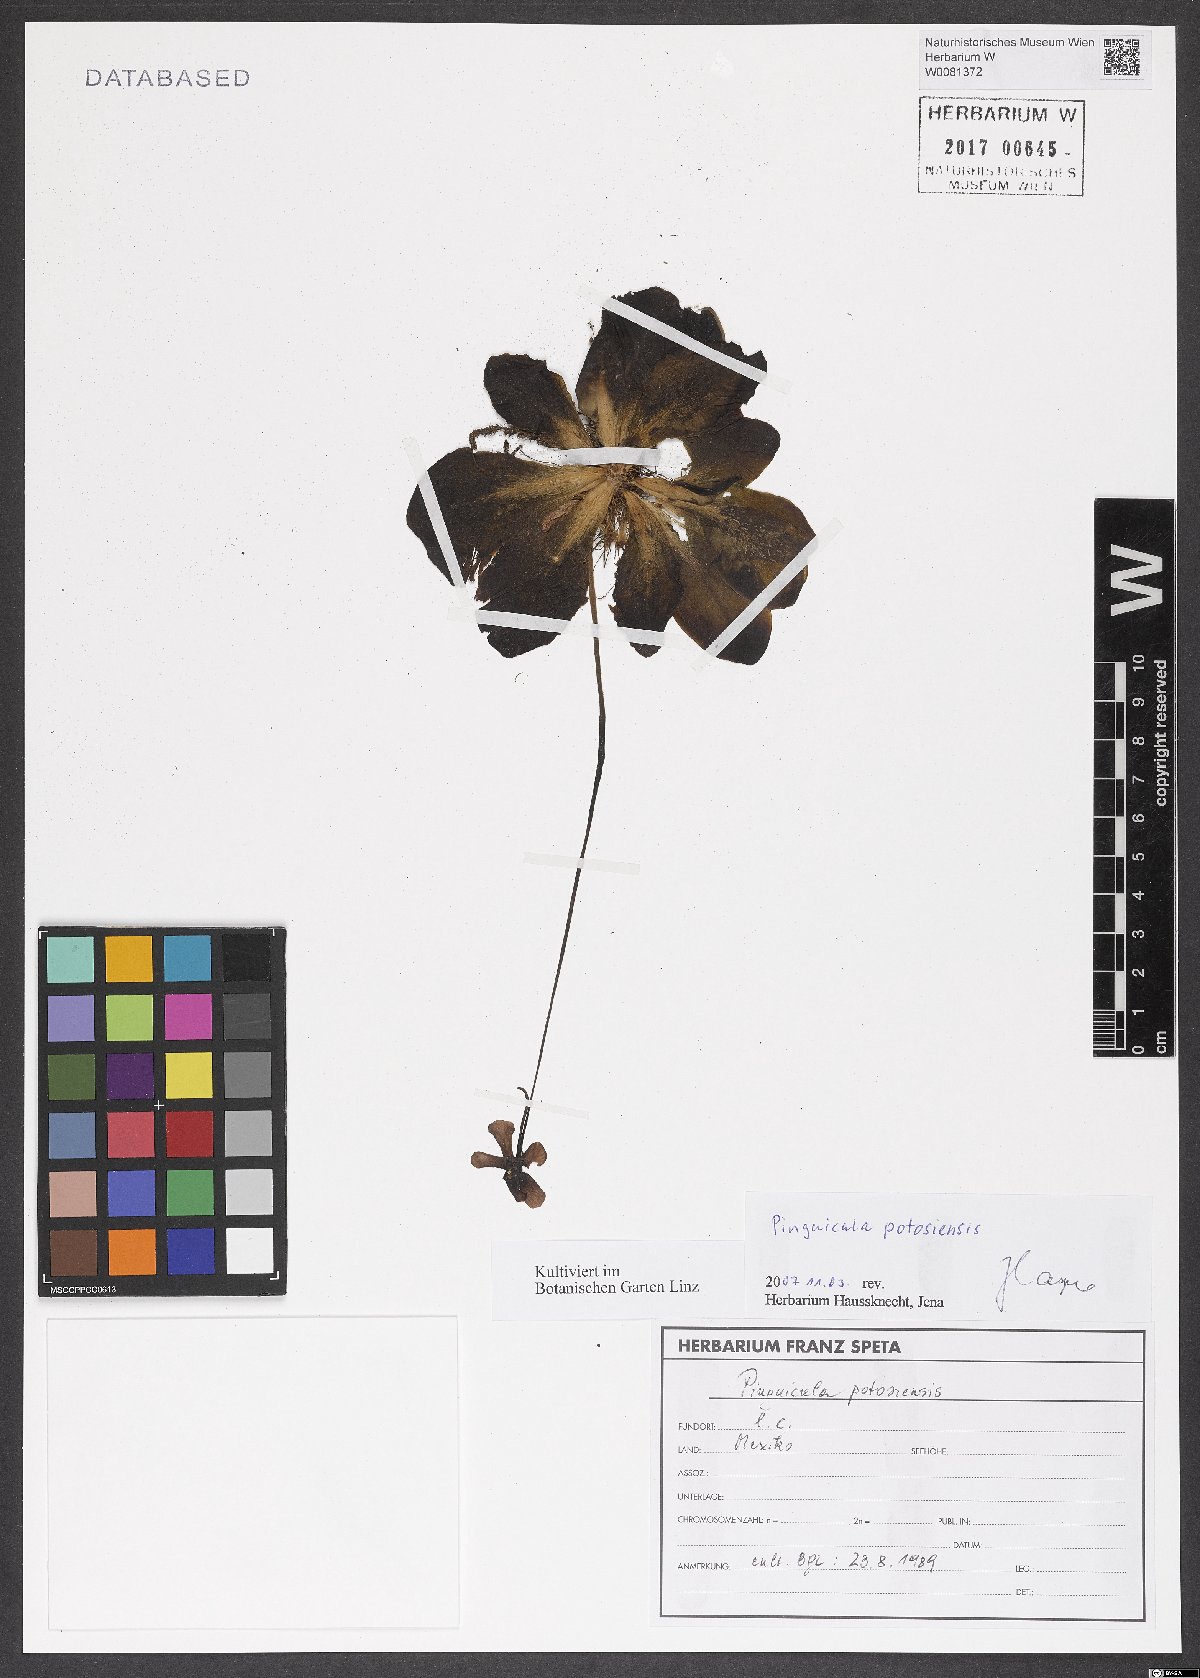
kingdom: Plantae
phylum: Tracheophyta
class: Magnoliopsida
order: Lamiales
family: Lentibulariaceae
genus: Pinguicula
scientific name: Pinguicula moranensis
